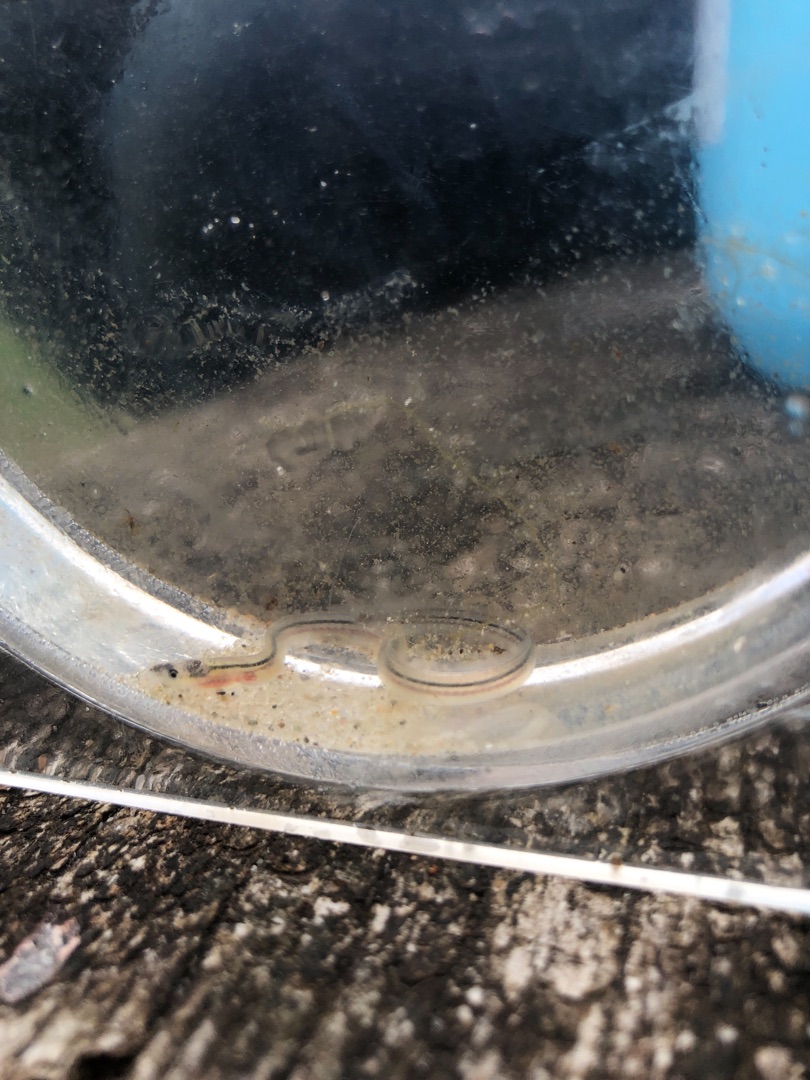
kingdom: Animalia
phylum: Chordata
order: Anguilliformes
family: Anguillidae
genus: Anguilla
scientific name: Anguilla anguilla
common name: Europæisk ål
